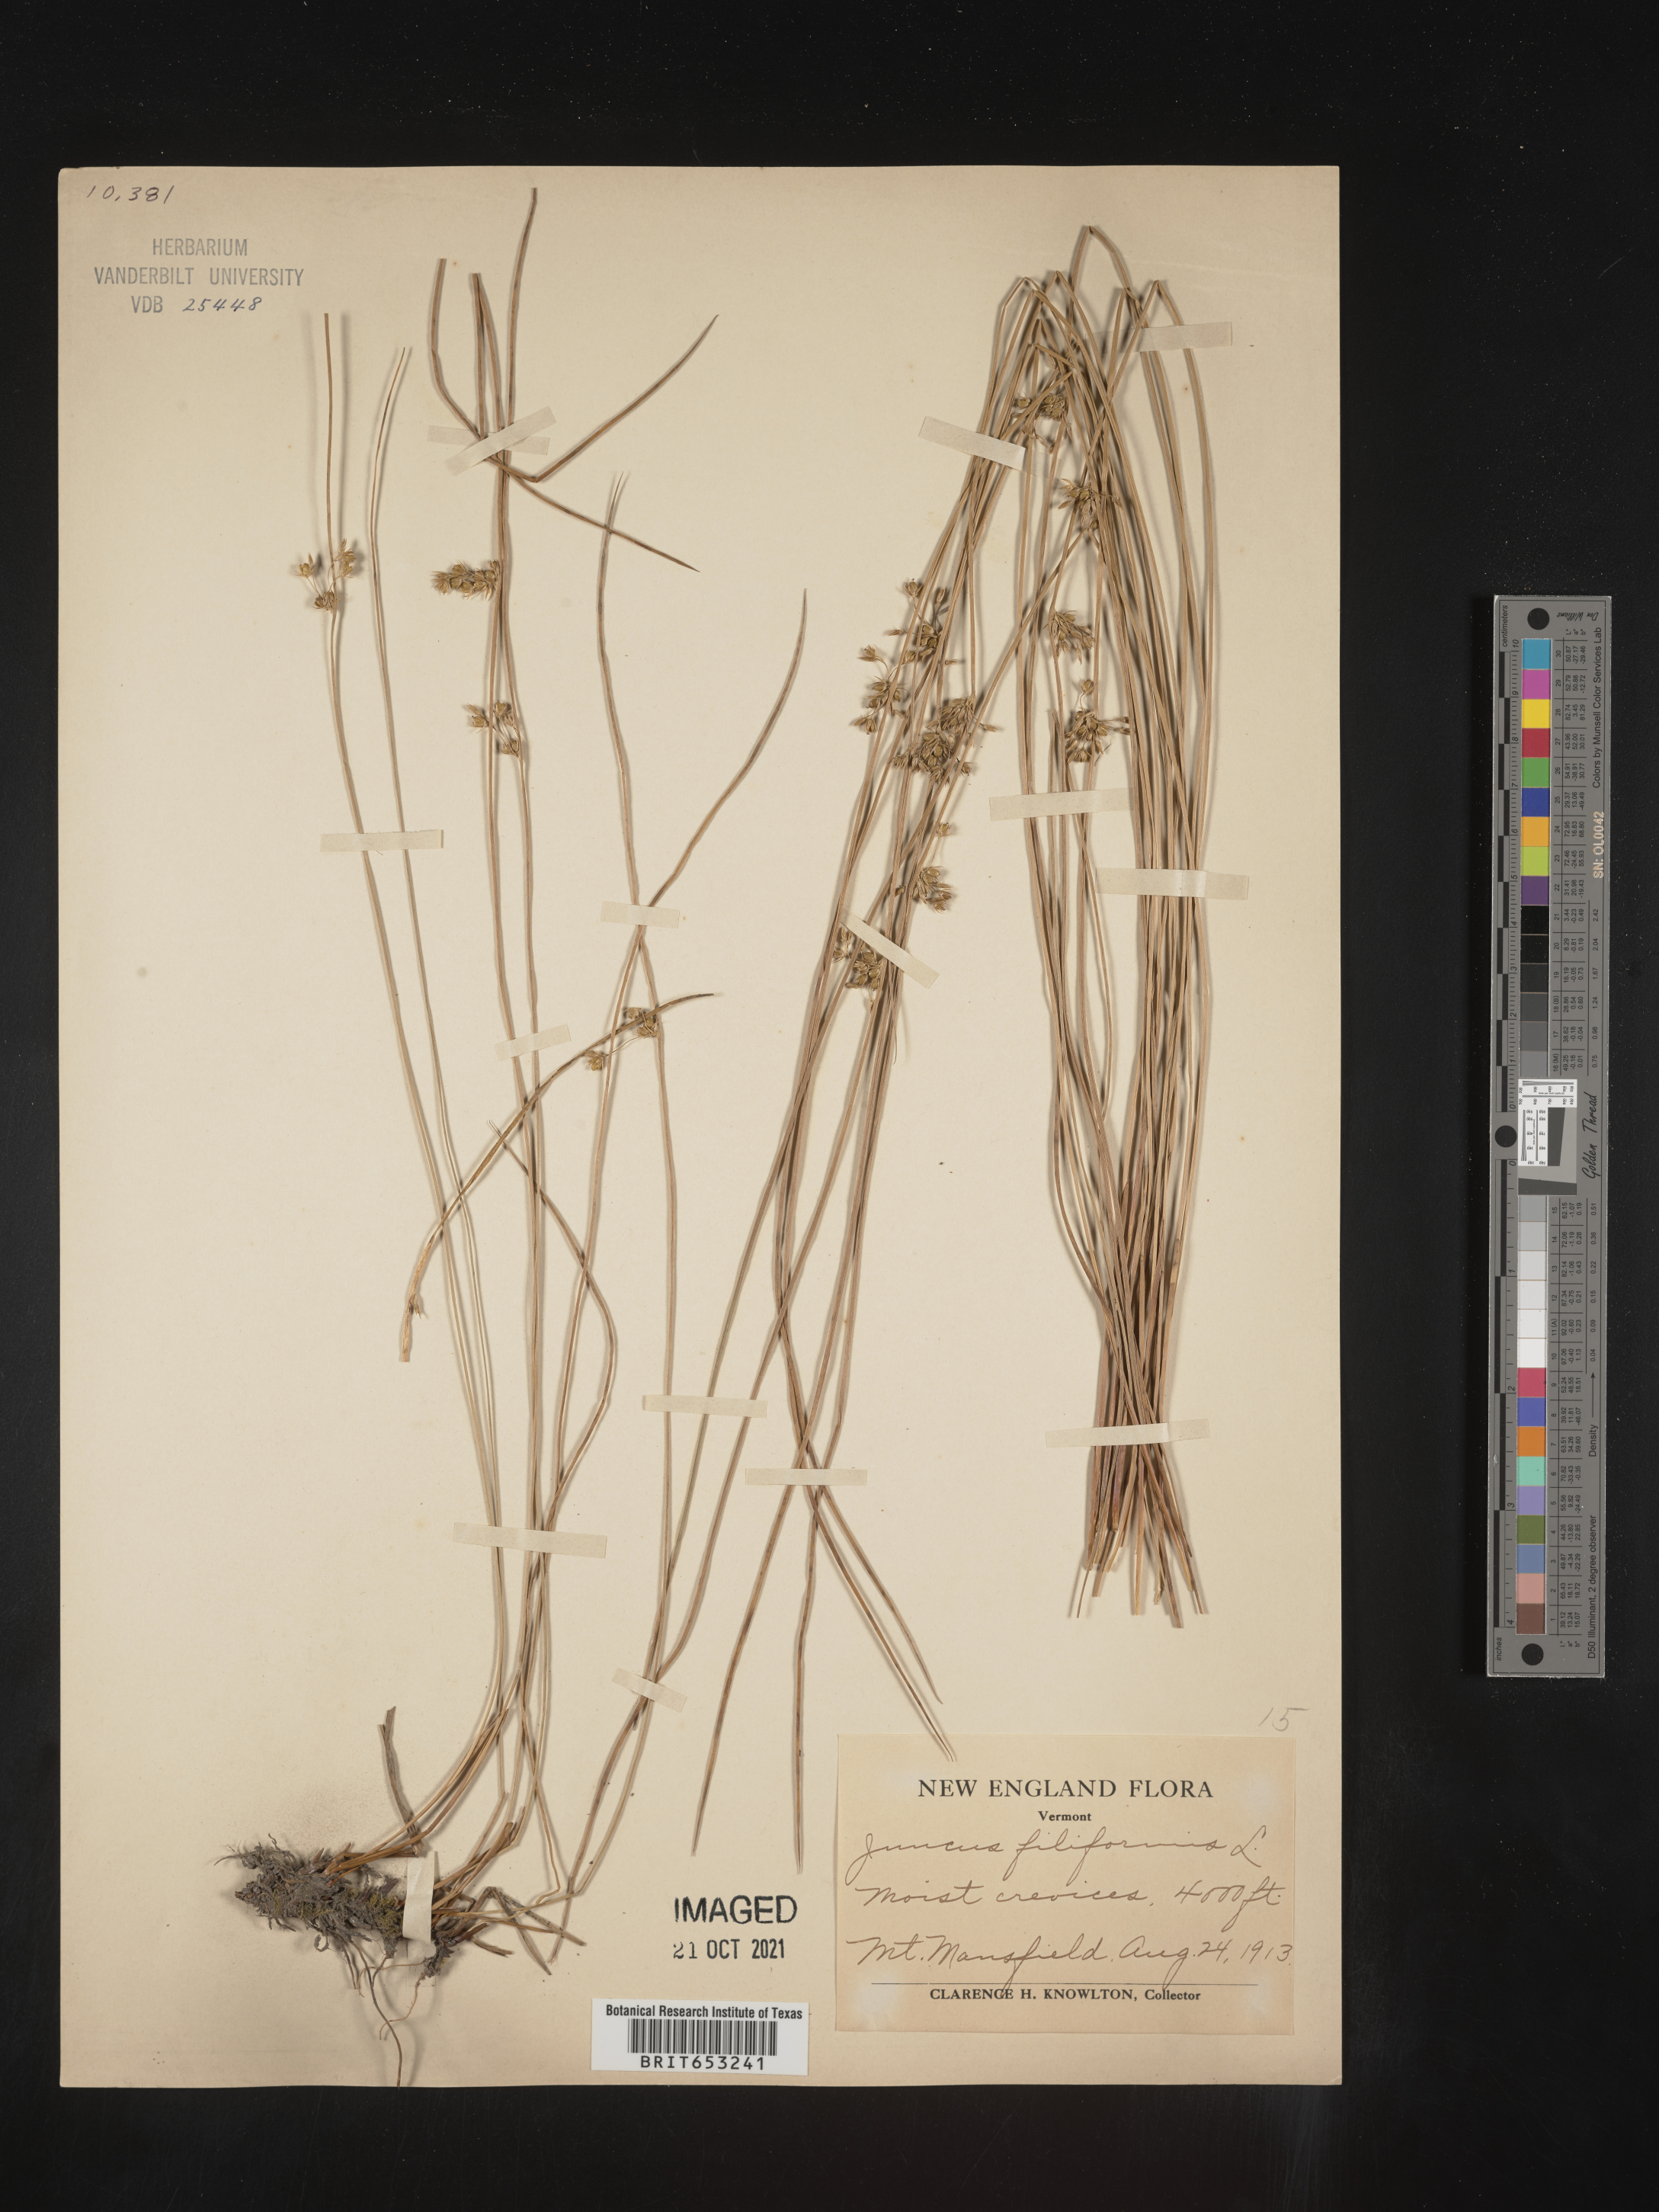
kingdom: Plantae
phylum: Tracheophyta
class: Liliopsida
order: Poales
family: Juncaceae
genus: Juncus
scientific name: Juncus filiformis
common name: Thread rush
